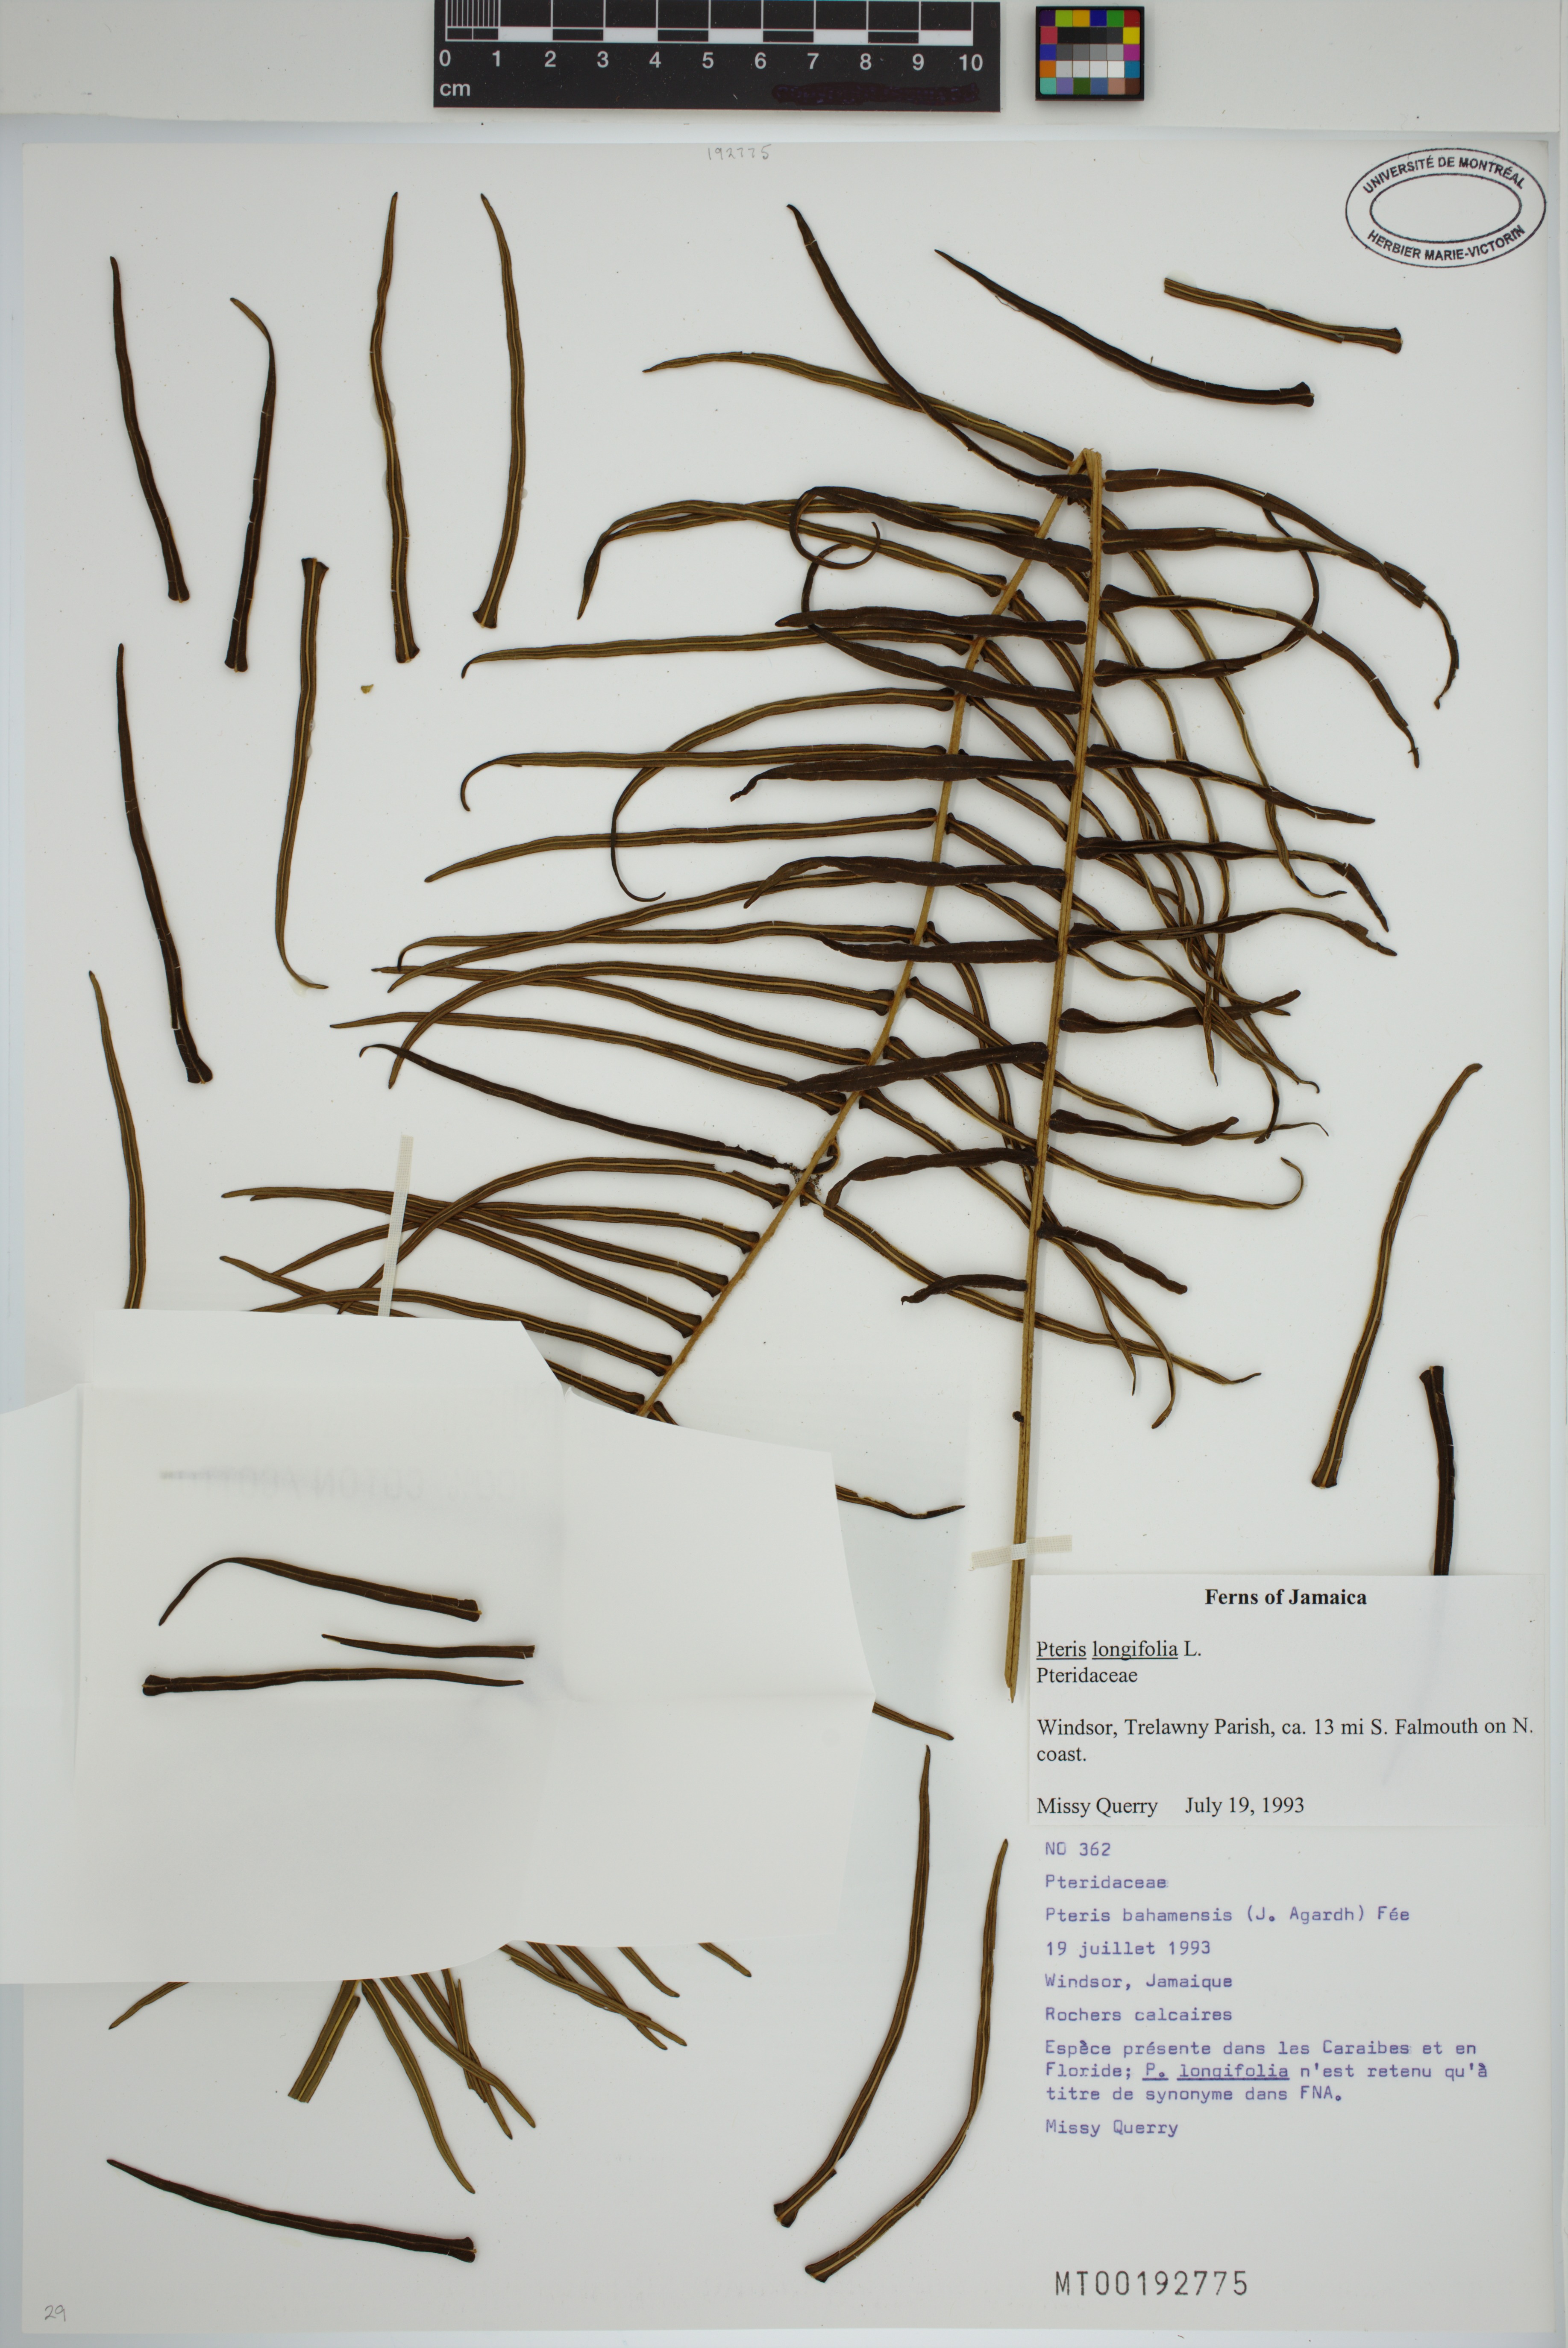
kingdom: Plantae
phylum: Tracheophyta
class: Polypodiopsida
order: Polypodiales
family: Pteridaceae
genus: Pteris
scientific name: Pteris bahamensis
